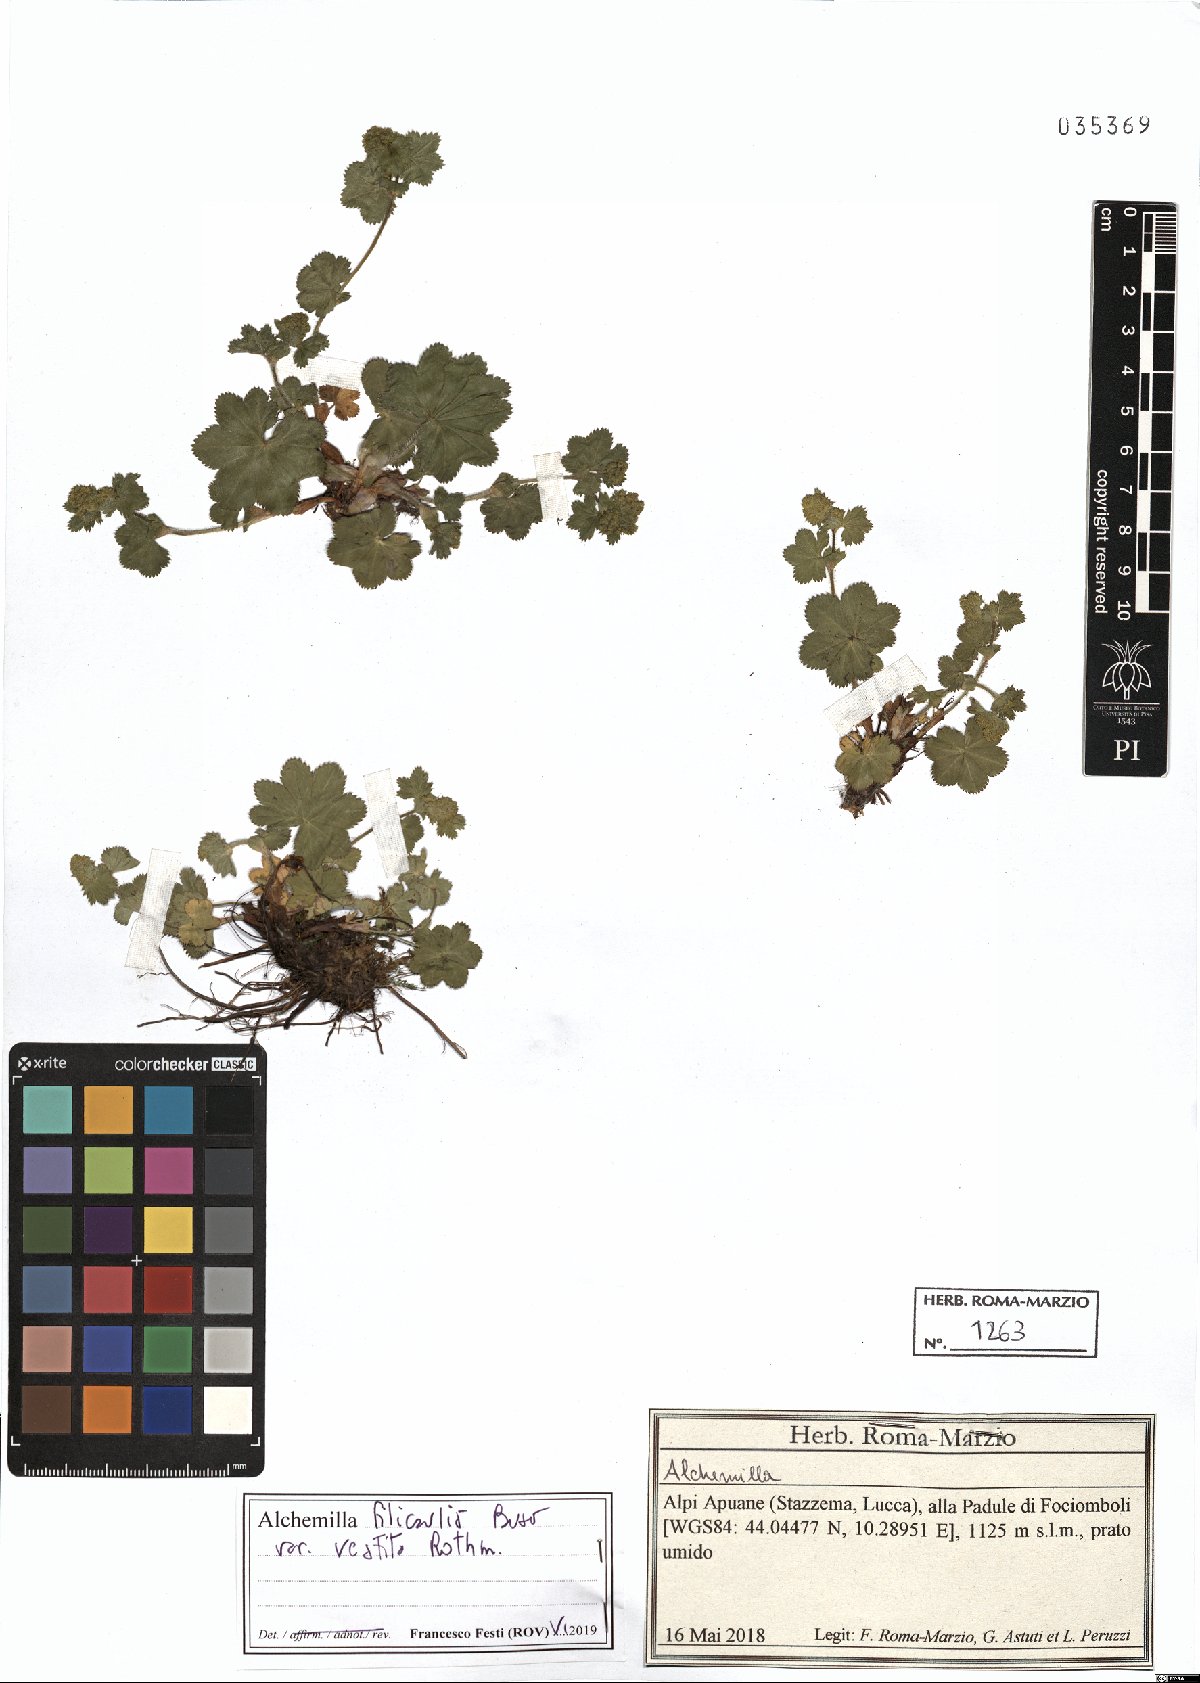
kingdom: Plantae
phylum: Tracheophyta
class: Magnoliopsida
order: Rosales
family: Rosaceae
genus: Alchemilla
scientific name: Alchemilla filicaulis
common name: Hairy lady's-mantle
